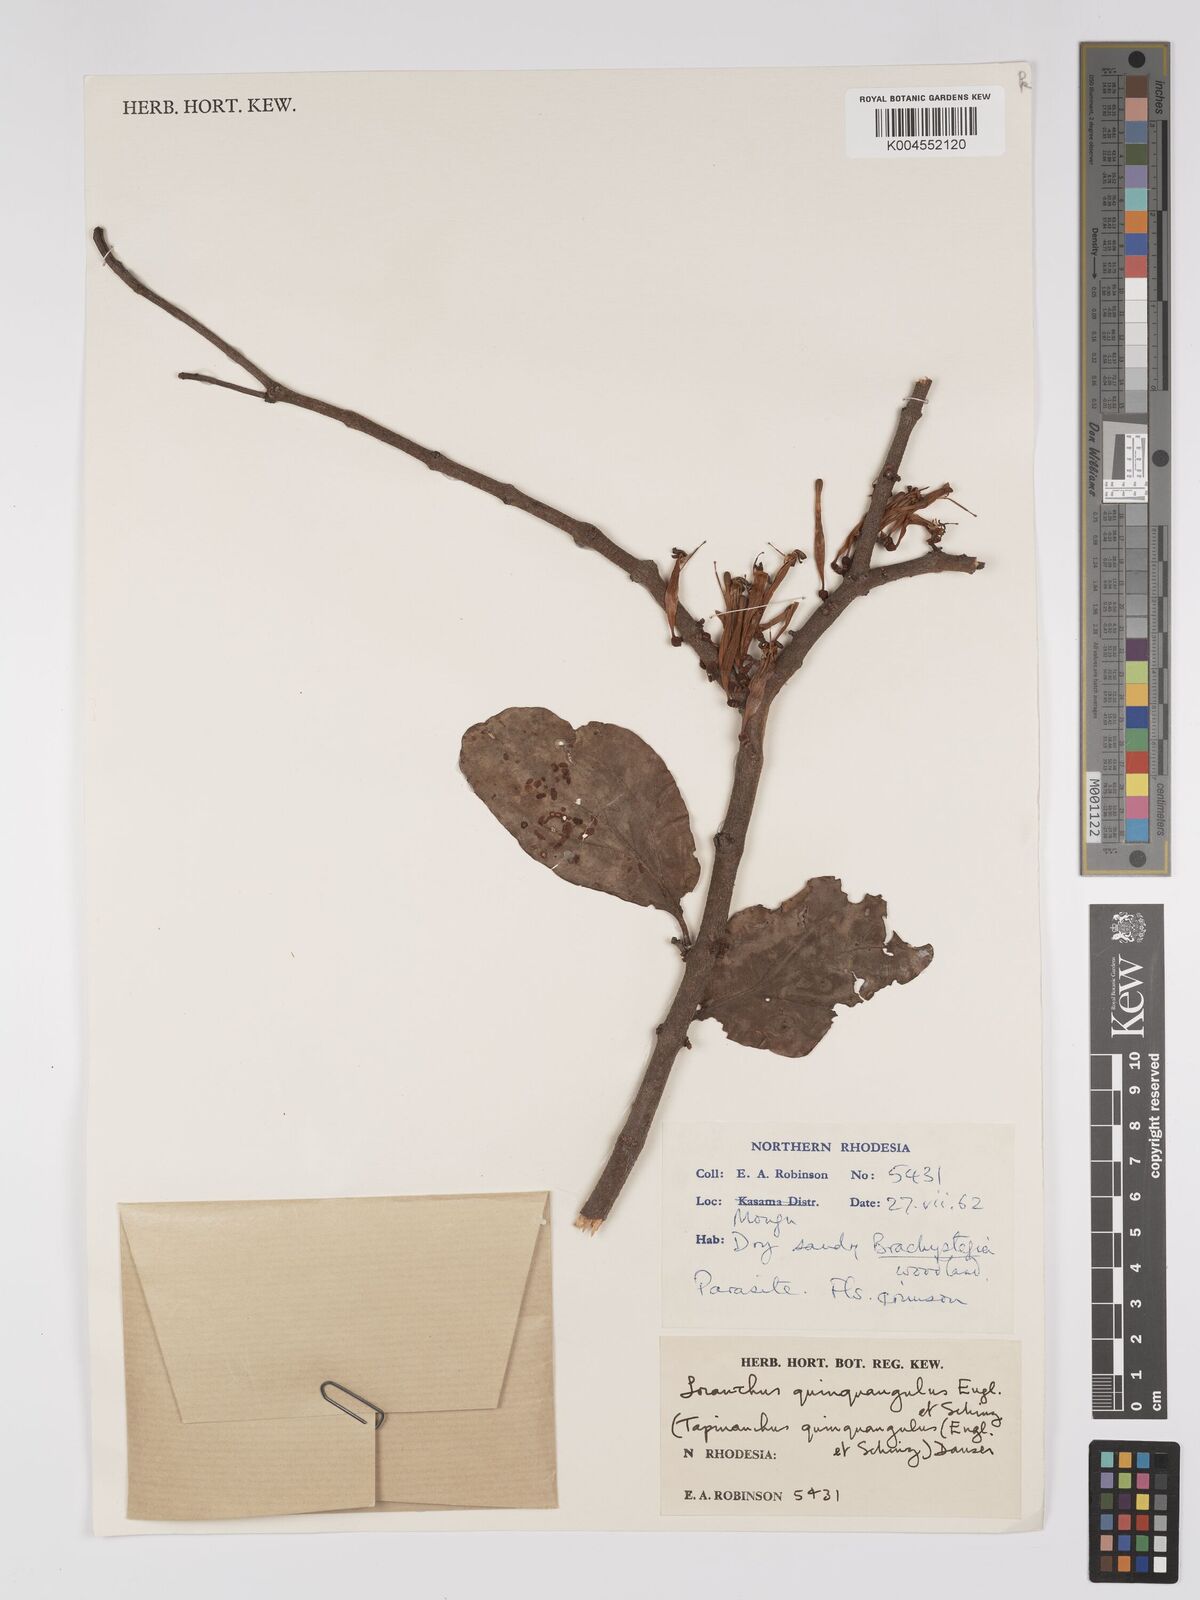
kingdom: Plantae
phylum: Tracheophyta
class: Magnoliopsida
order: Santalales
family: Loranthaceae
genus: Tapinanthus
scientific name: Tapinanthus forbesii
